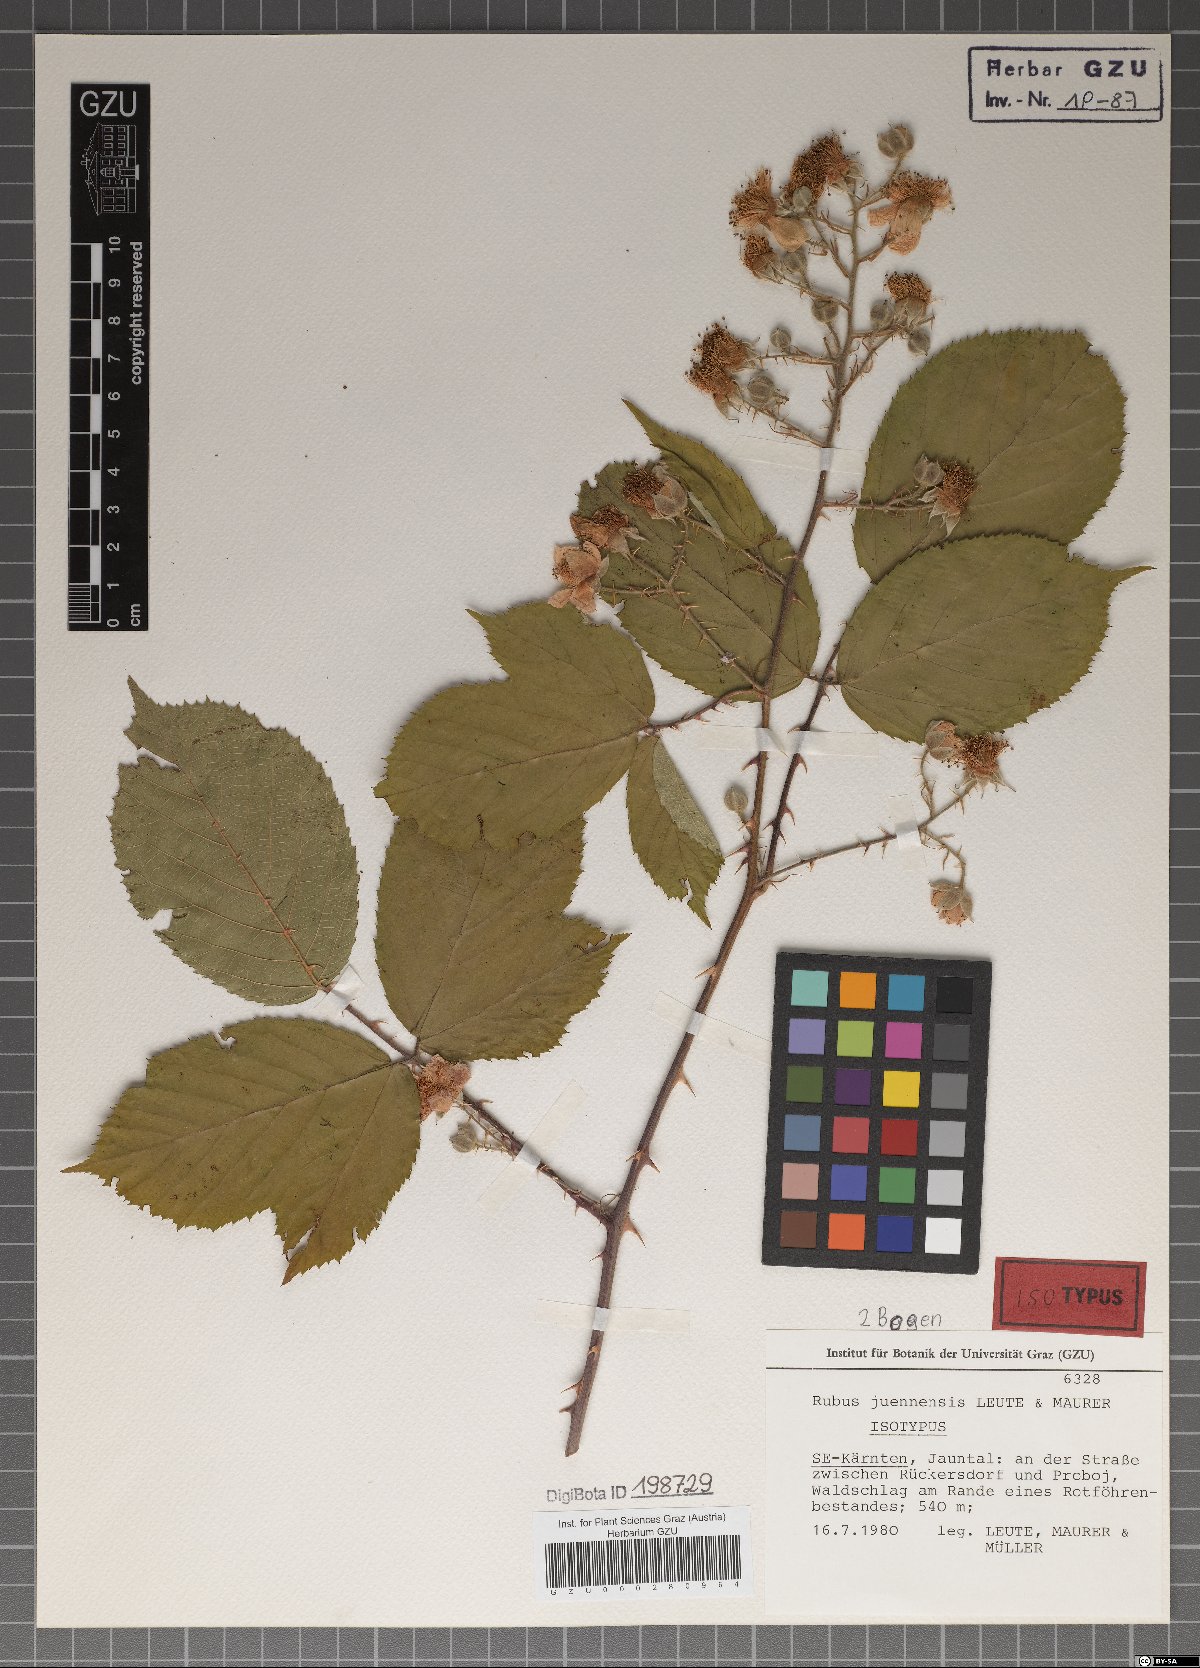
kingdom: Plantae
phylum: Tracheophyta
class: Magnoliopsida
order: Rosales
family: Rosaceae
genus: Rubus
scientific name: Rubus juennensis
